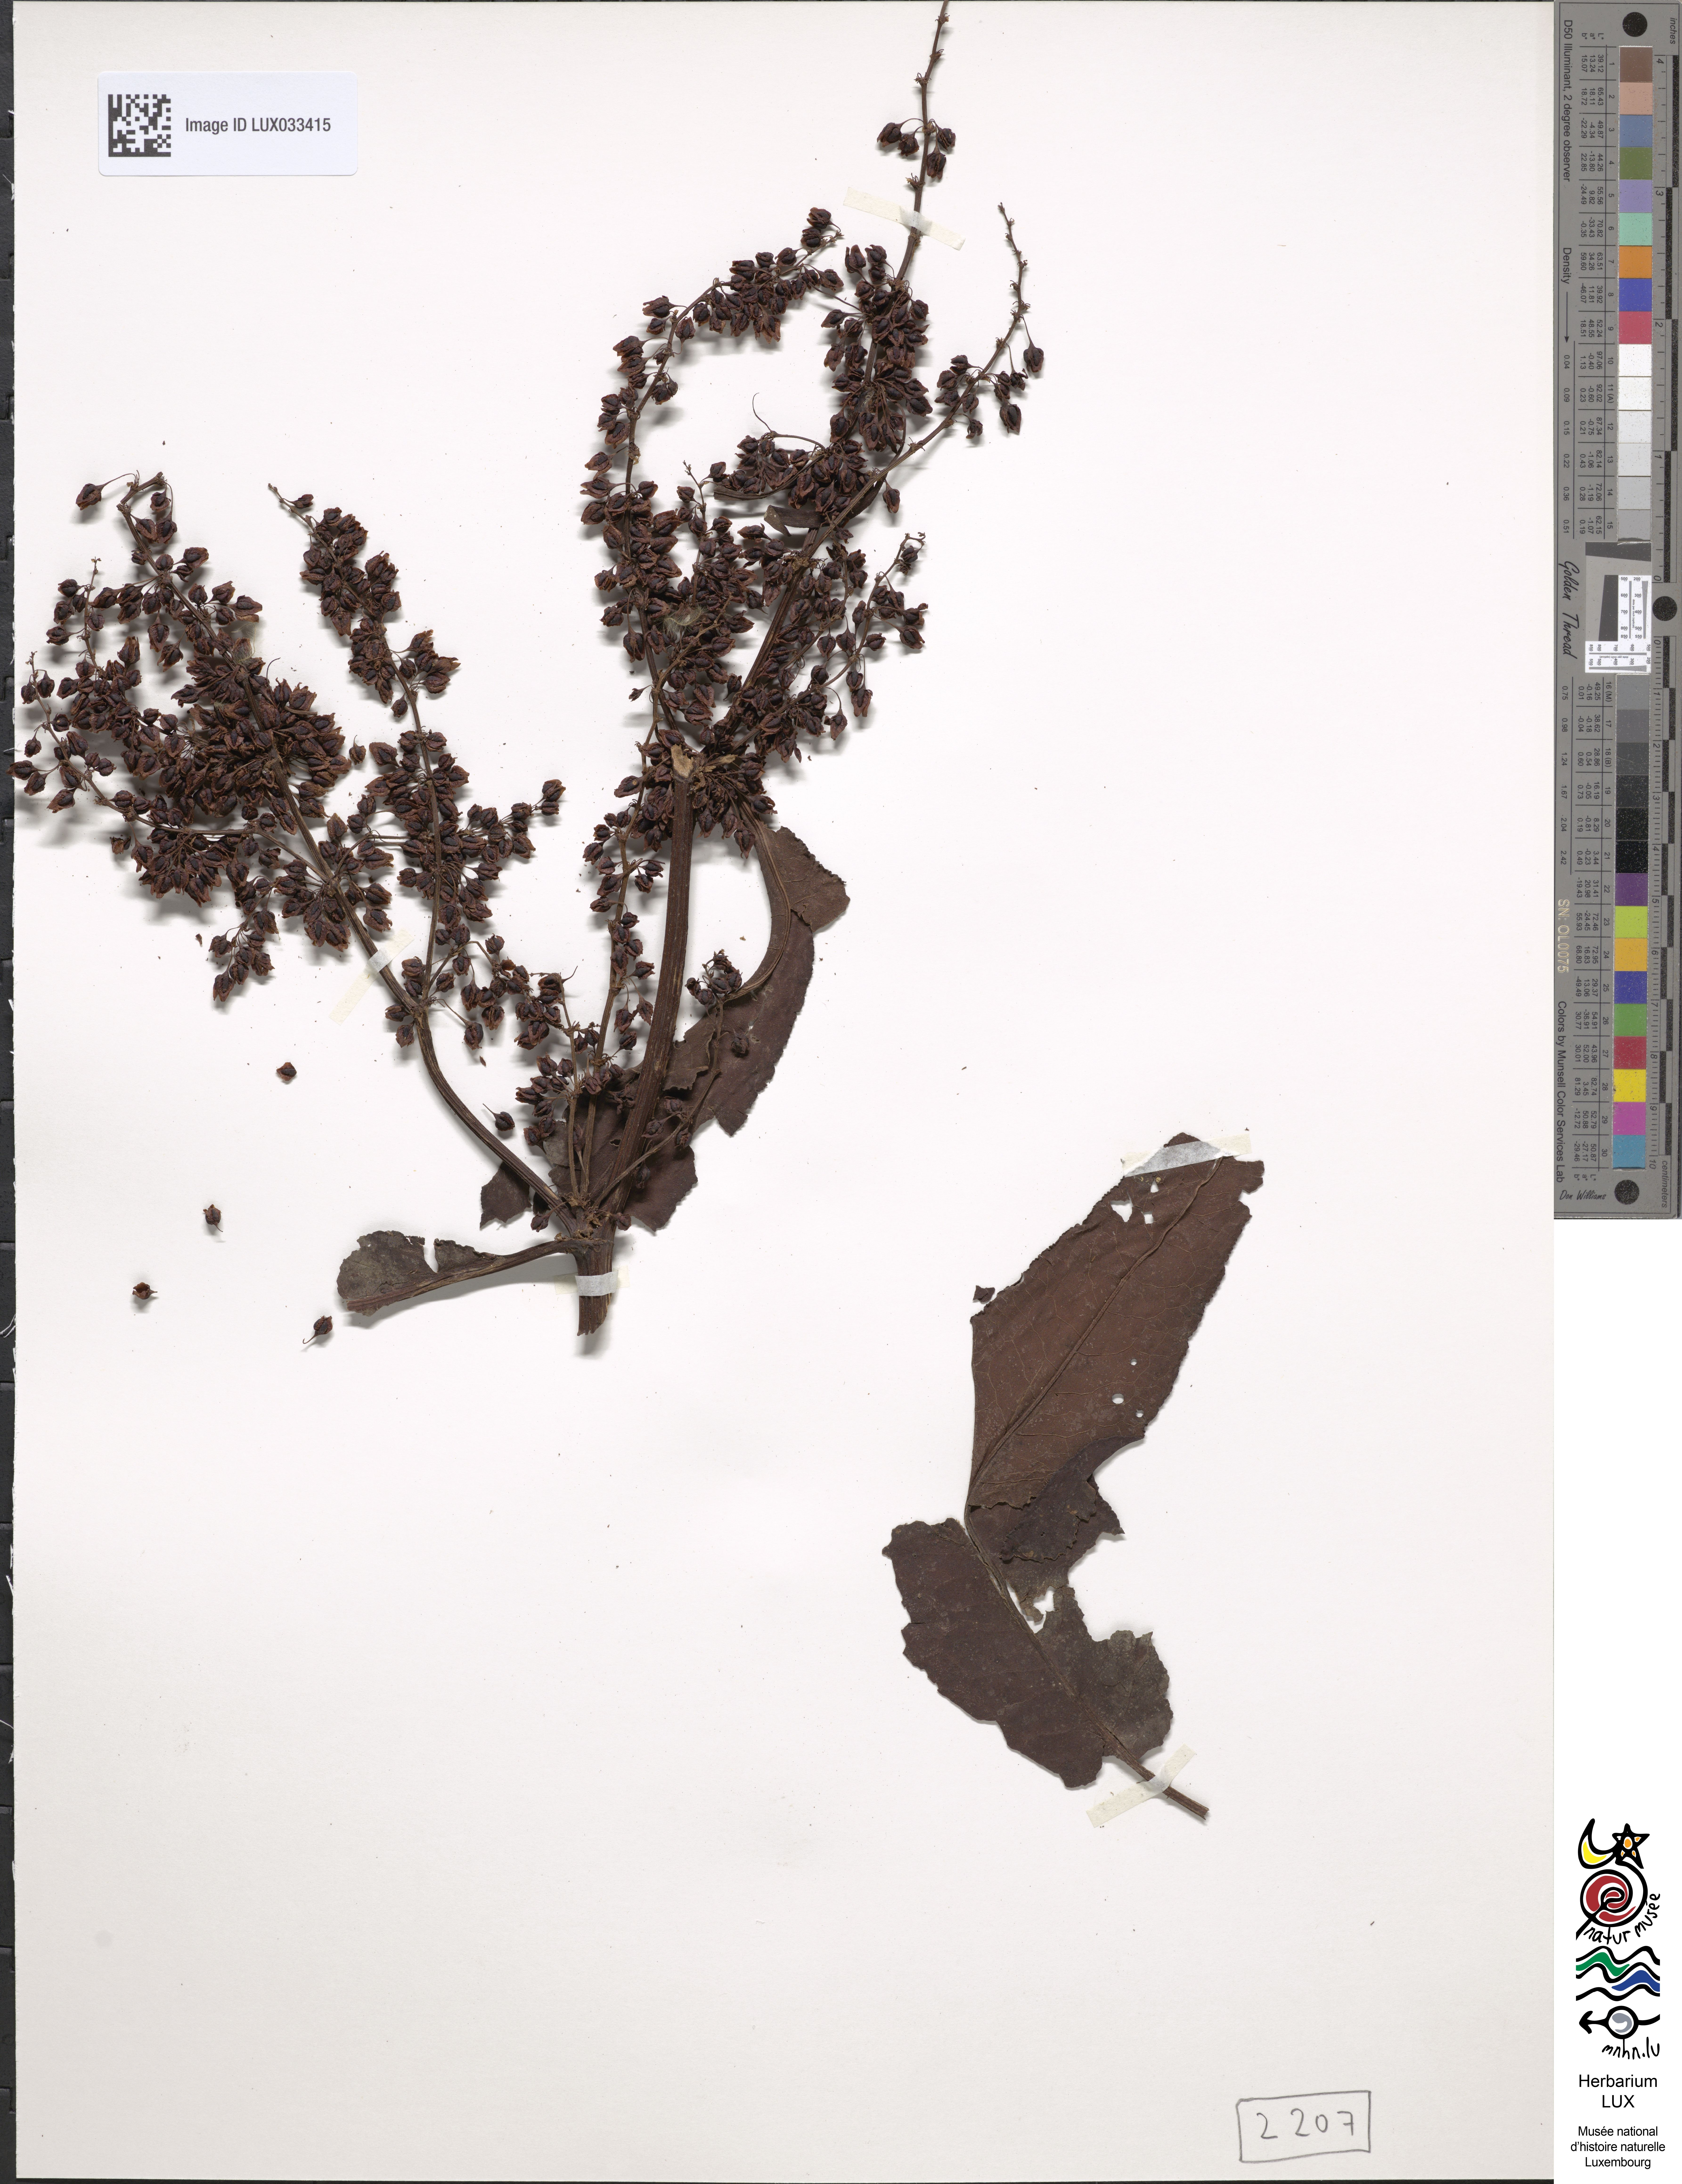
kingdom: Plantae
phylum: Tracheophyta
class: Magnoliopsida
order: Caryophyllales
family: Polygonaceae
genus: Rumex
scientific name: Rumex hydrolapathum
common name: Water dock
